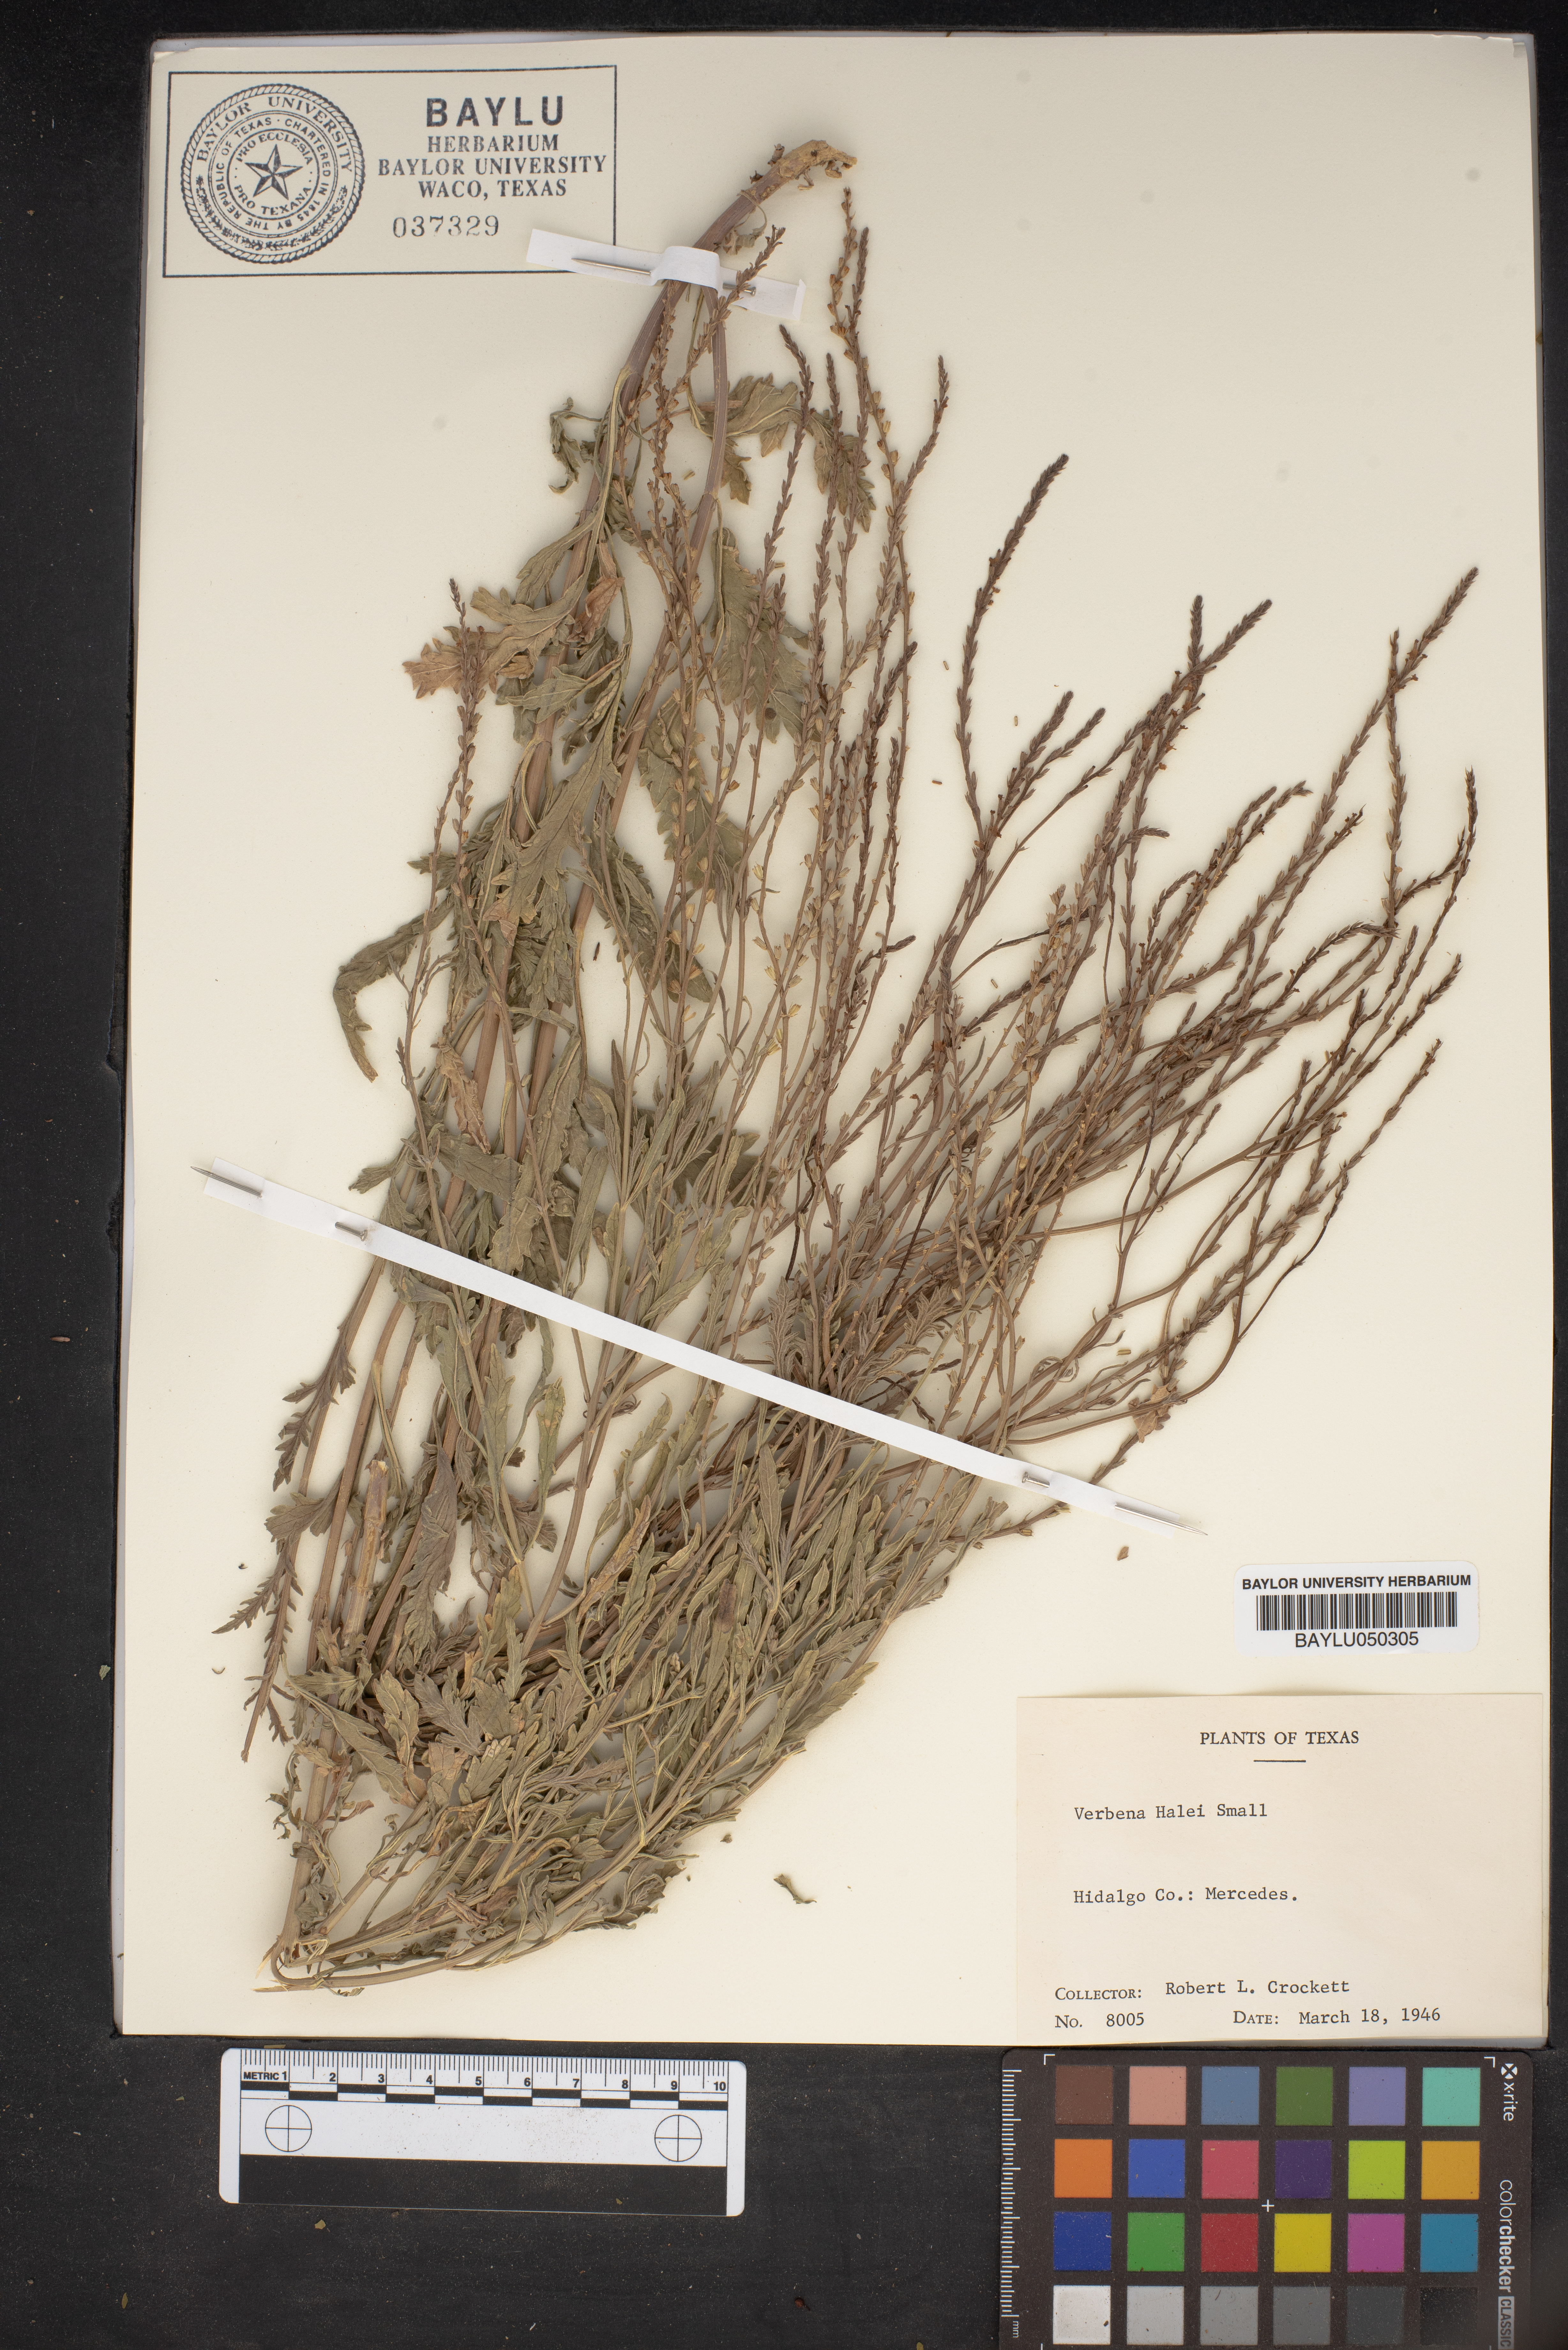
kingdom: Plantae
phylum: Tracheophyta
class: Magnoliopsida
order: Lamiales
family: Verbenaceae
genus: Verbena
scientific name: Verbena halei
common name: Texas vervain
